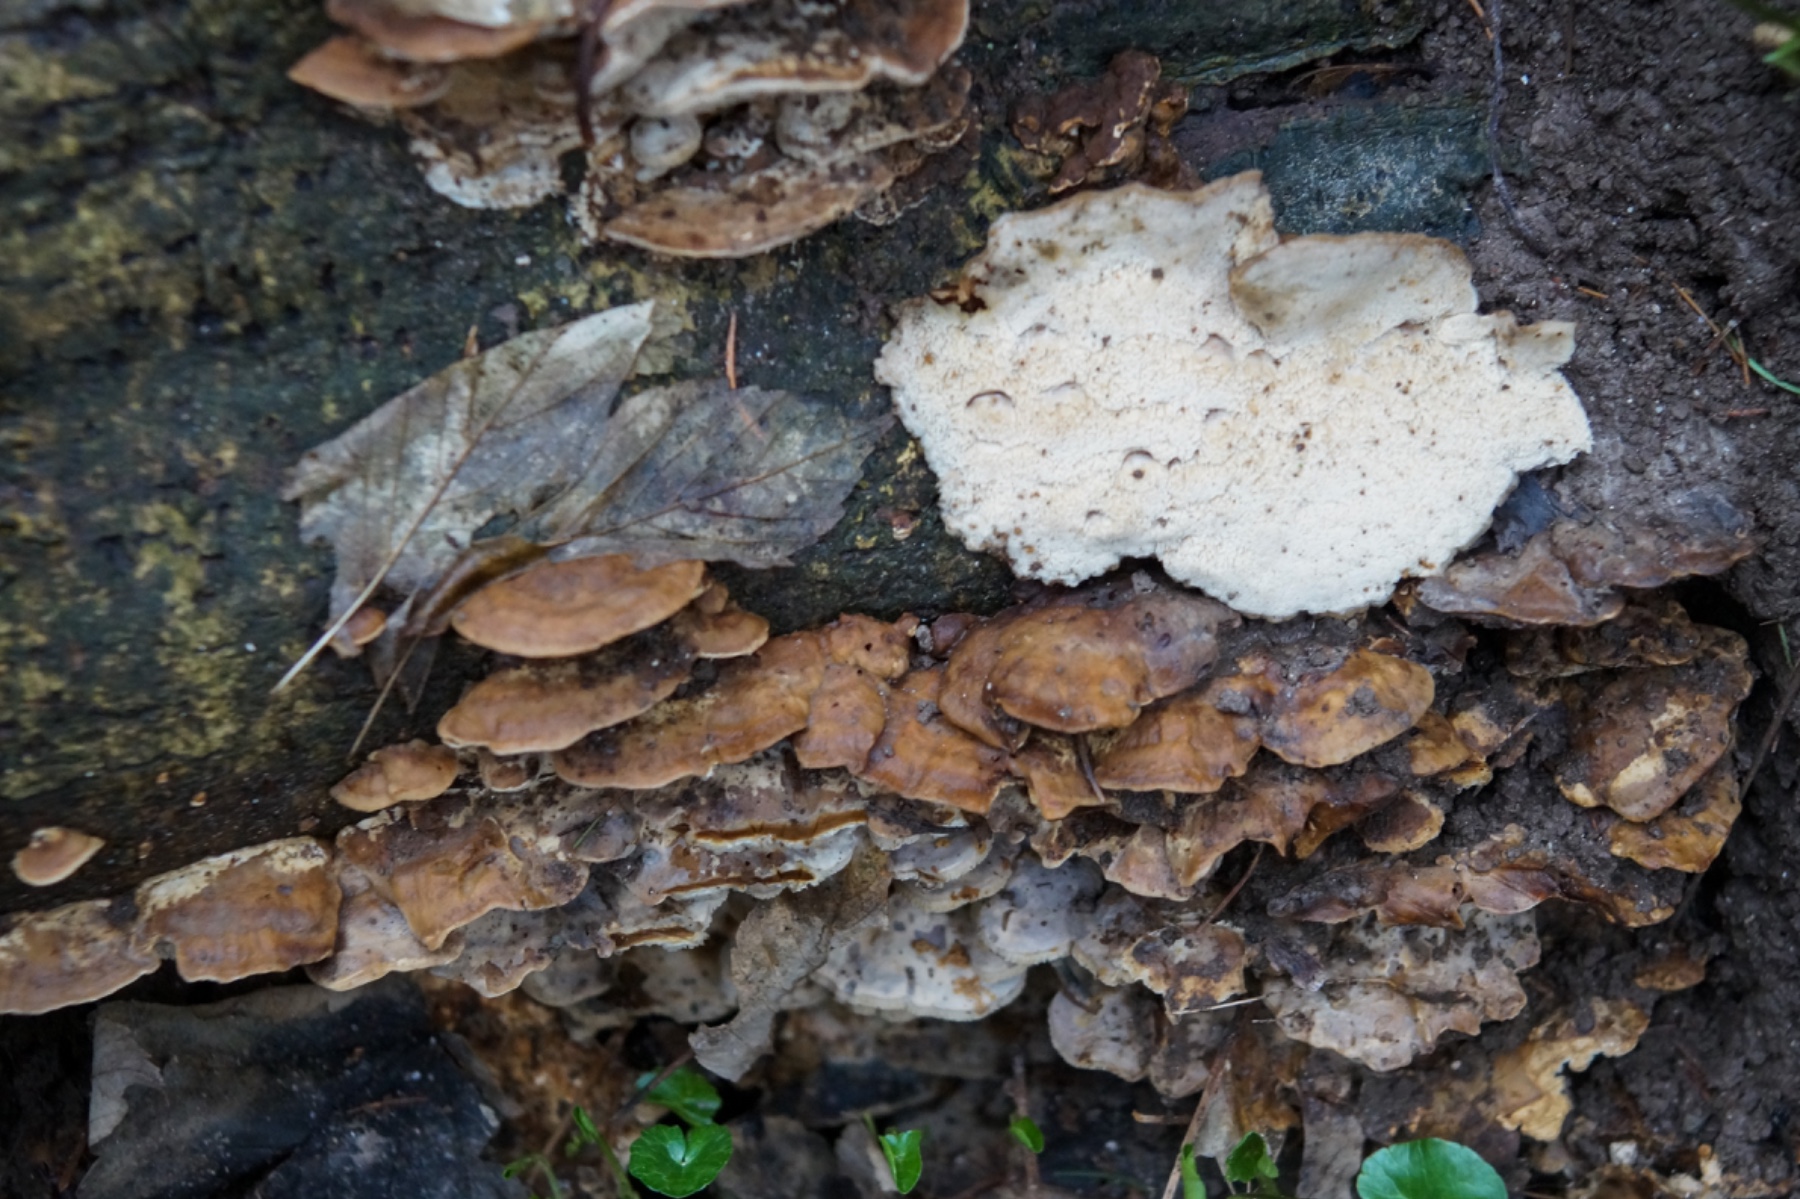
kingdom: Fungi
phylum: Basidiomycota
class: Agaricomycetes
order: Polyporales
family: Phanerochaetaceae
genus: Bjerkandera
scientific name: Bjerkandera fumosa
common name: grågul sodporesvamp
